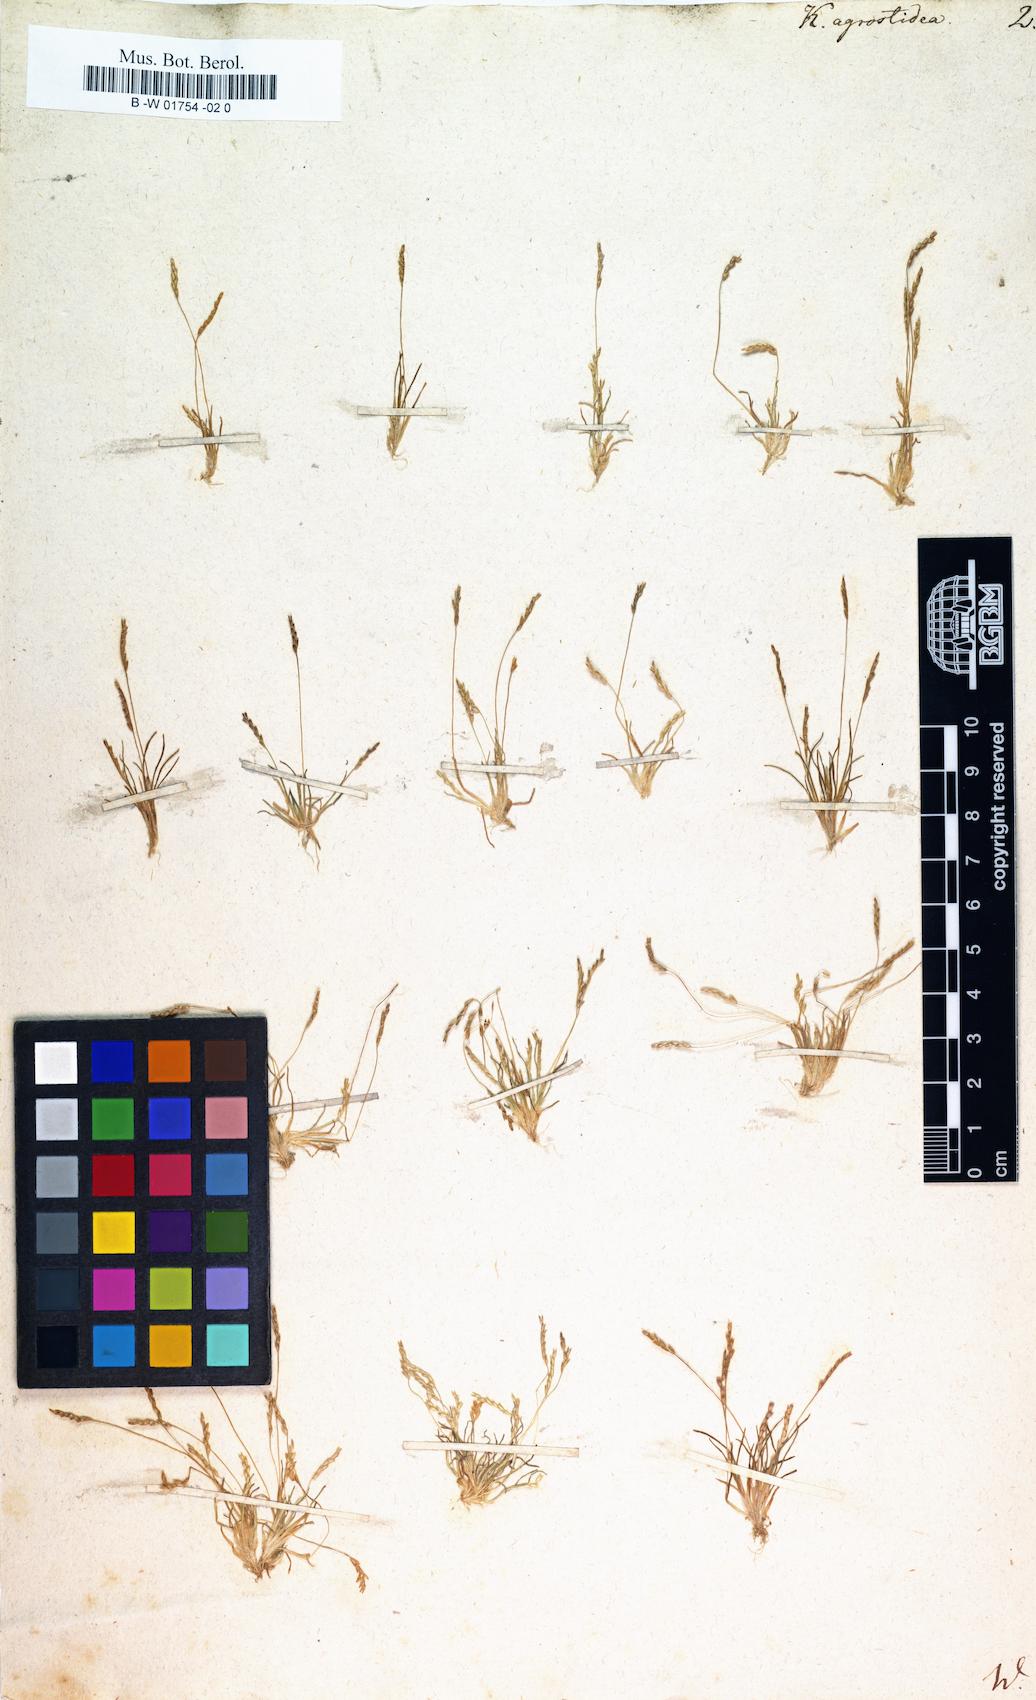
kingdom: Plantae
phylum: Tracheophyta
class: Liliopsida
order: Poales
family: Poaceae
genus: Mibora
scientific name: Mibora minima
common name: Early sand-grass
